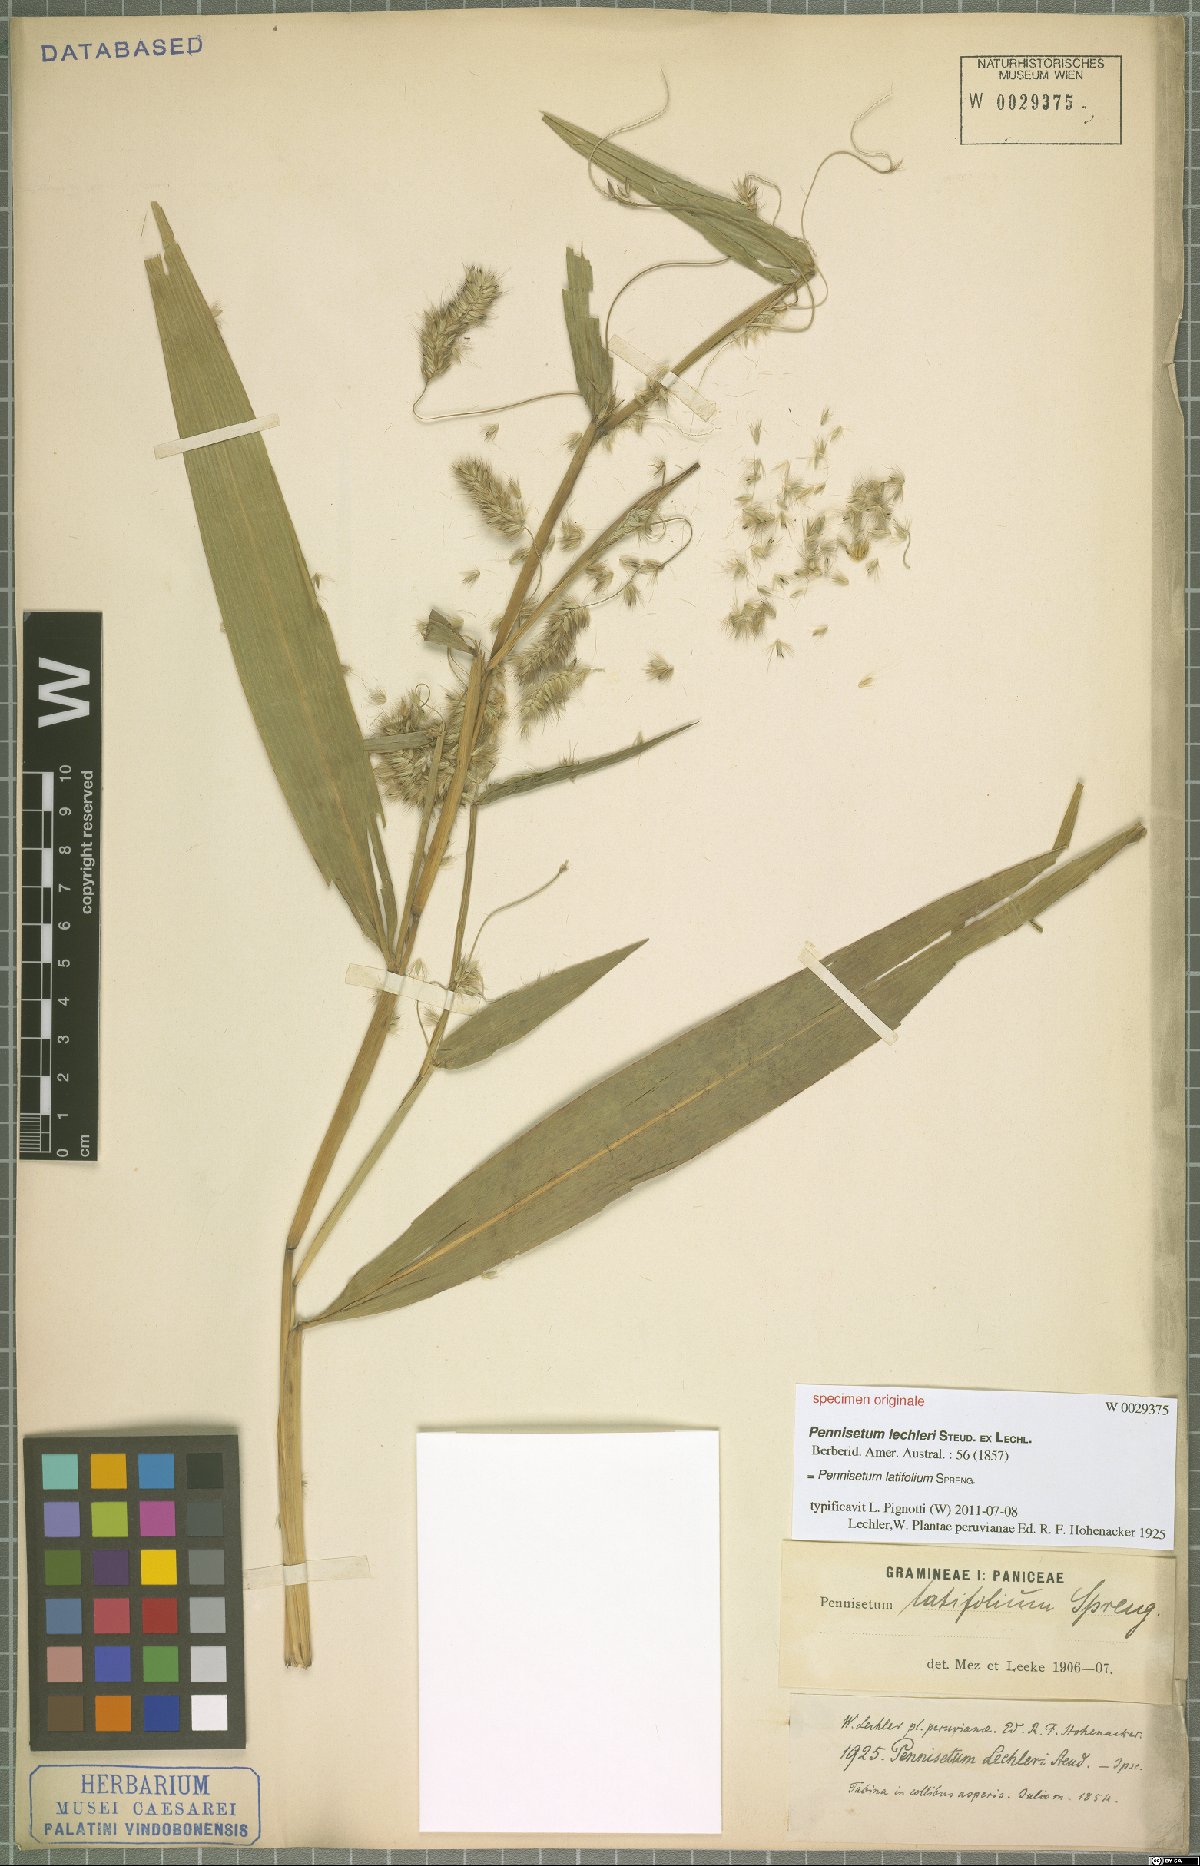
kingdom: Plantae
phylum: Tracheophyta
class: Liliopsida
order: Poales
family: Poaceae
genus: Cenchrus
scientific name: Cenchrus latifolius
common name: Sandbur
